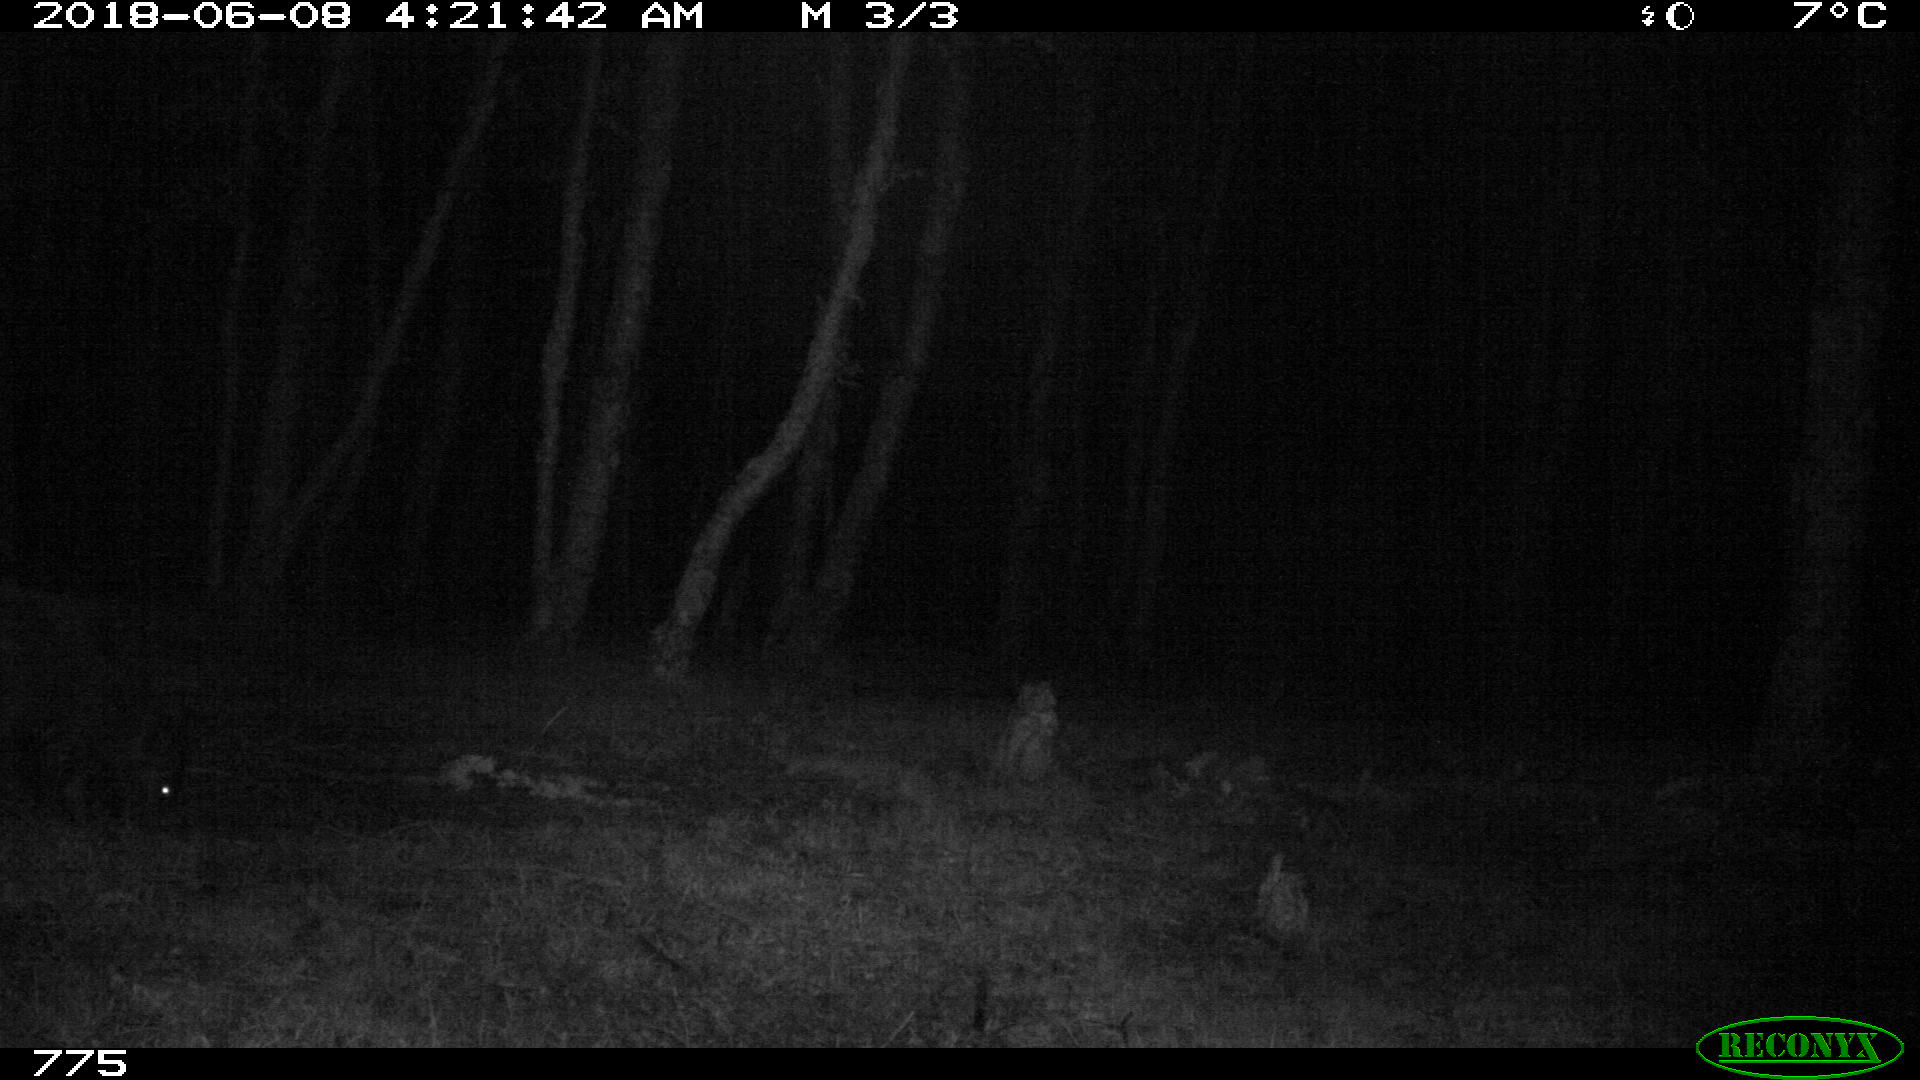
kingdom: Animalia
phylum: Chordata
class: Mammalia
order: Artiodactyla
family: Suidae
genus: Sus
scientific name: Sus scrofa
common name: Wild boar
